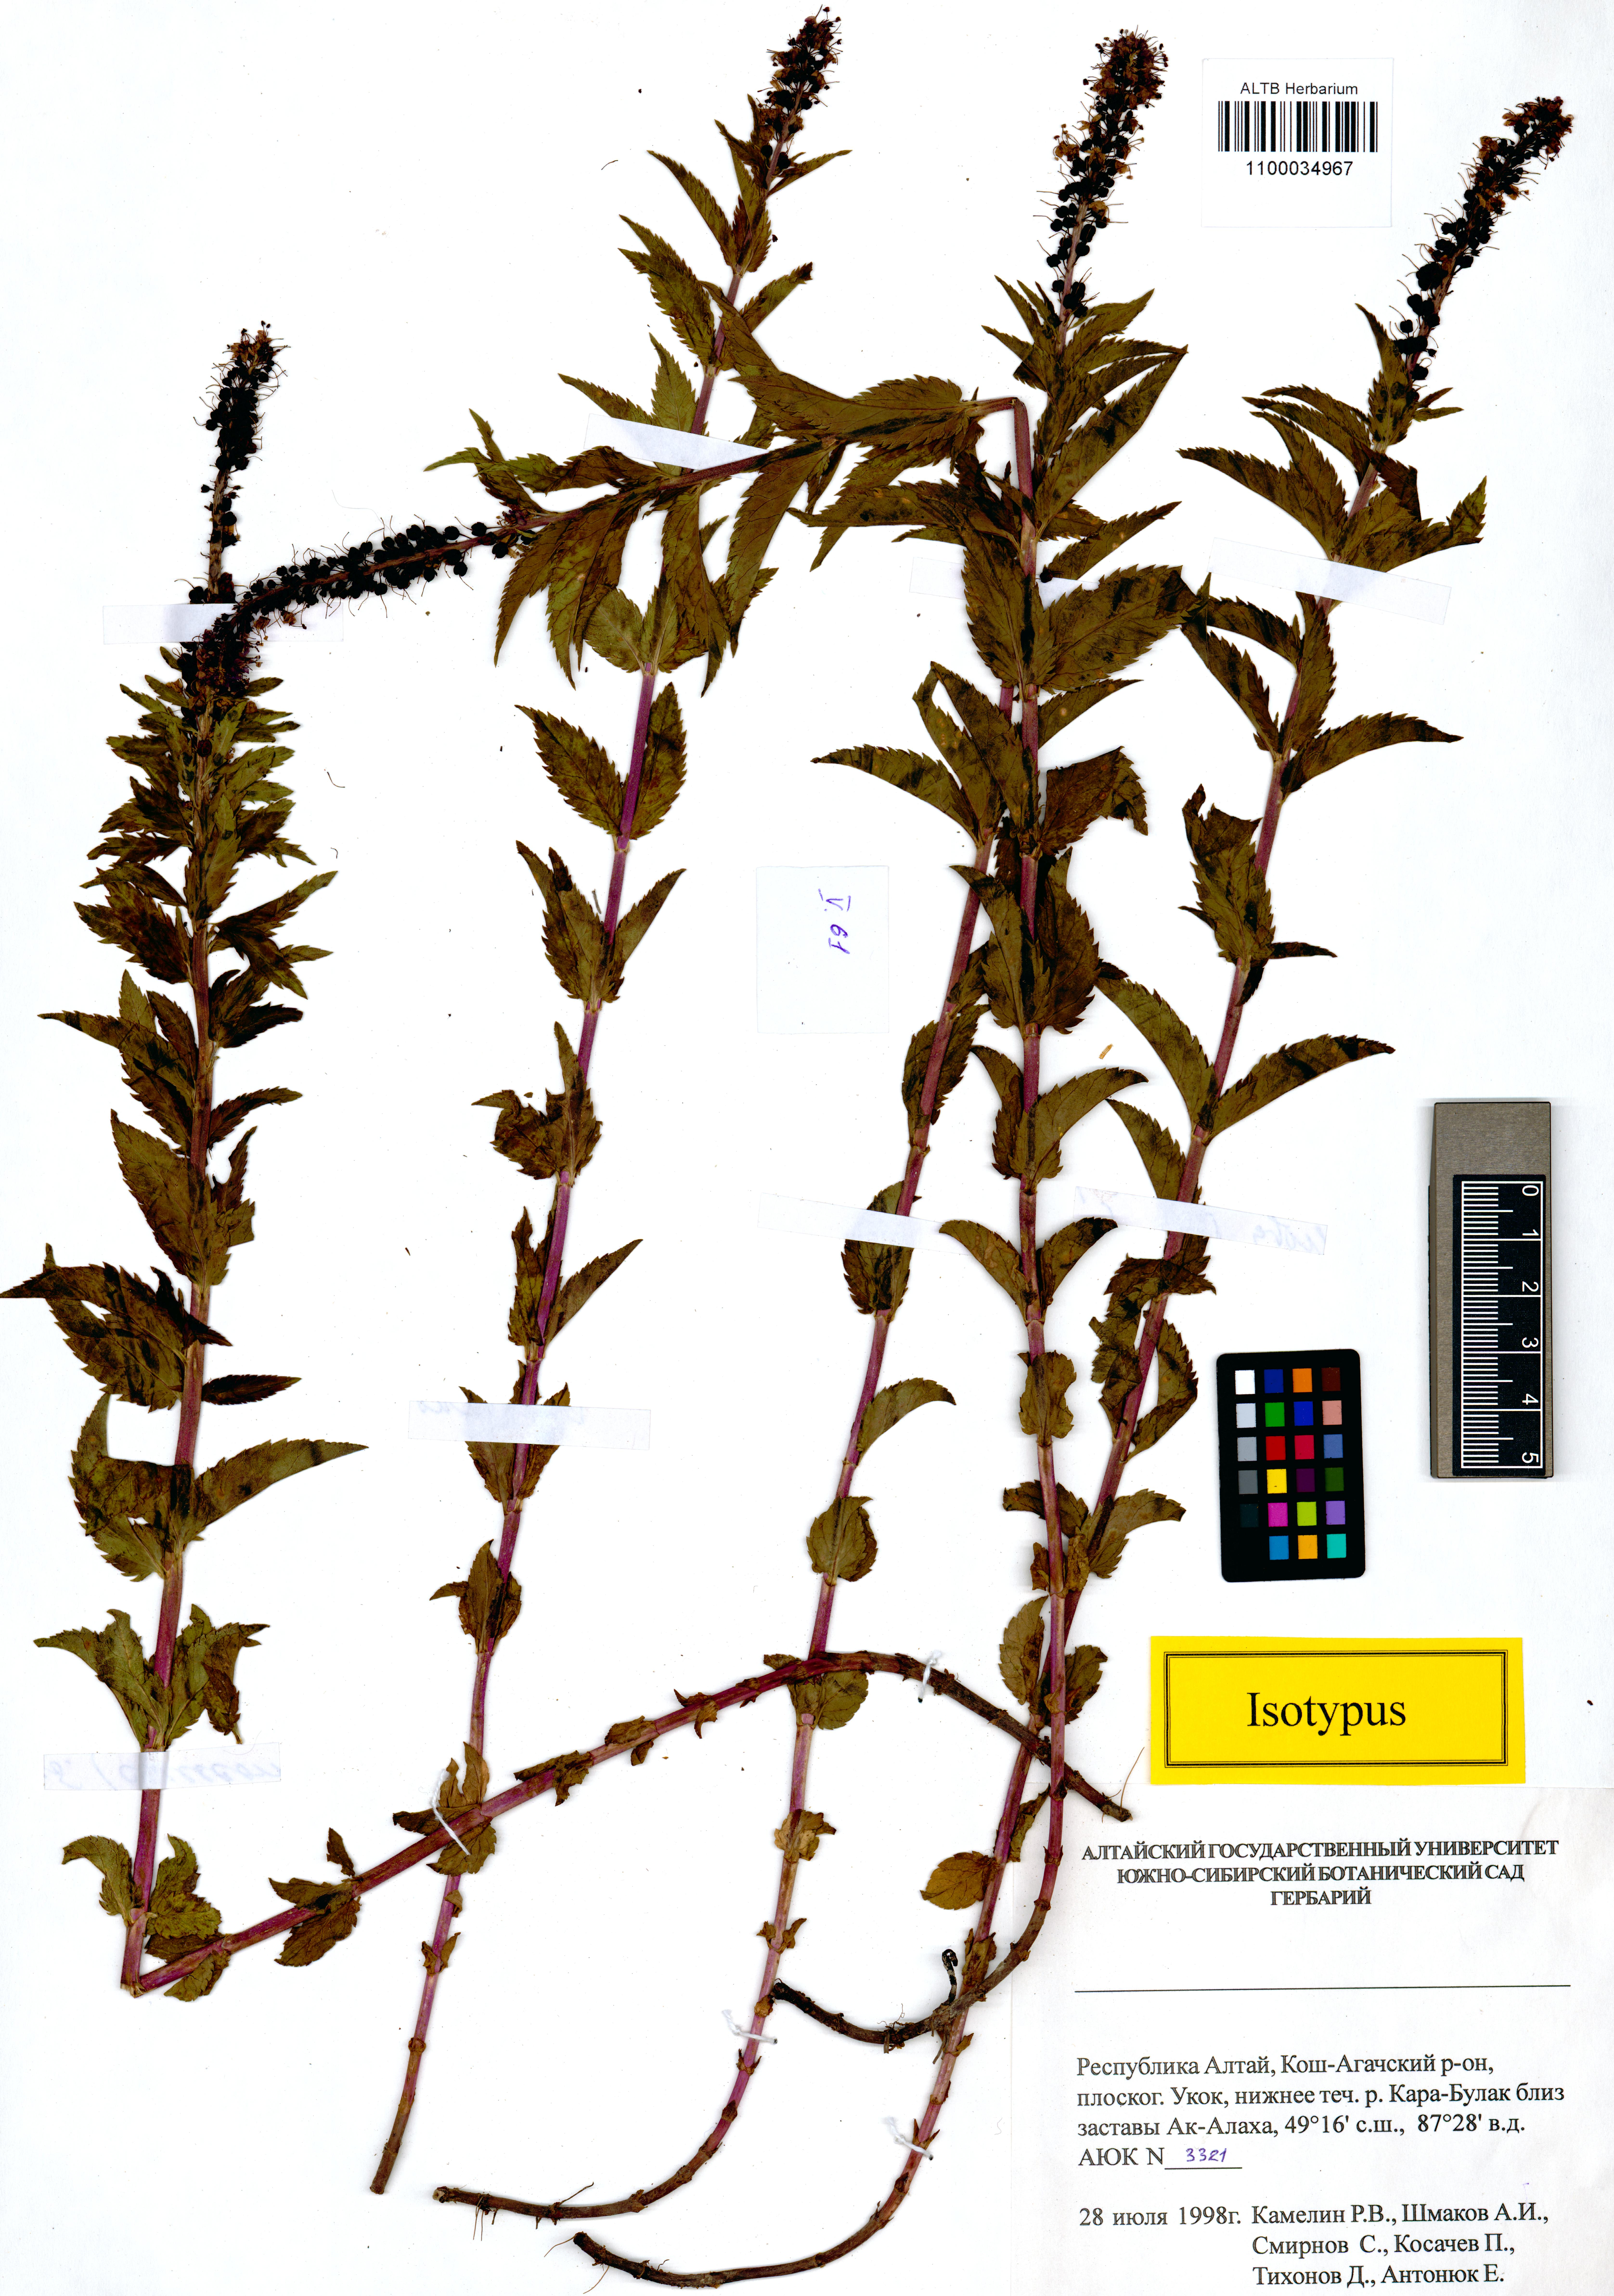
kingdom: Plantae
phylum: Tracheophyta
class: Magnoliopsida
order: Lamiales
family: Plantaginaceae
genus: Veronica
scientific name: Veronica schmakovii
